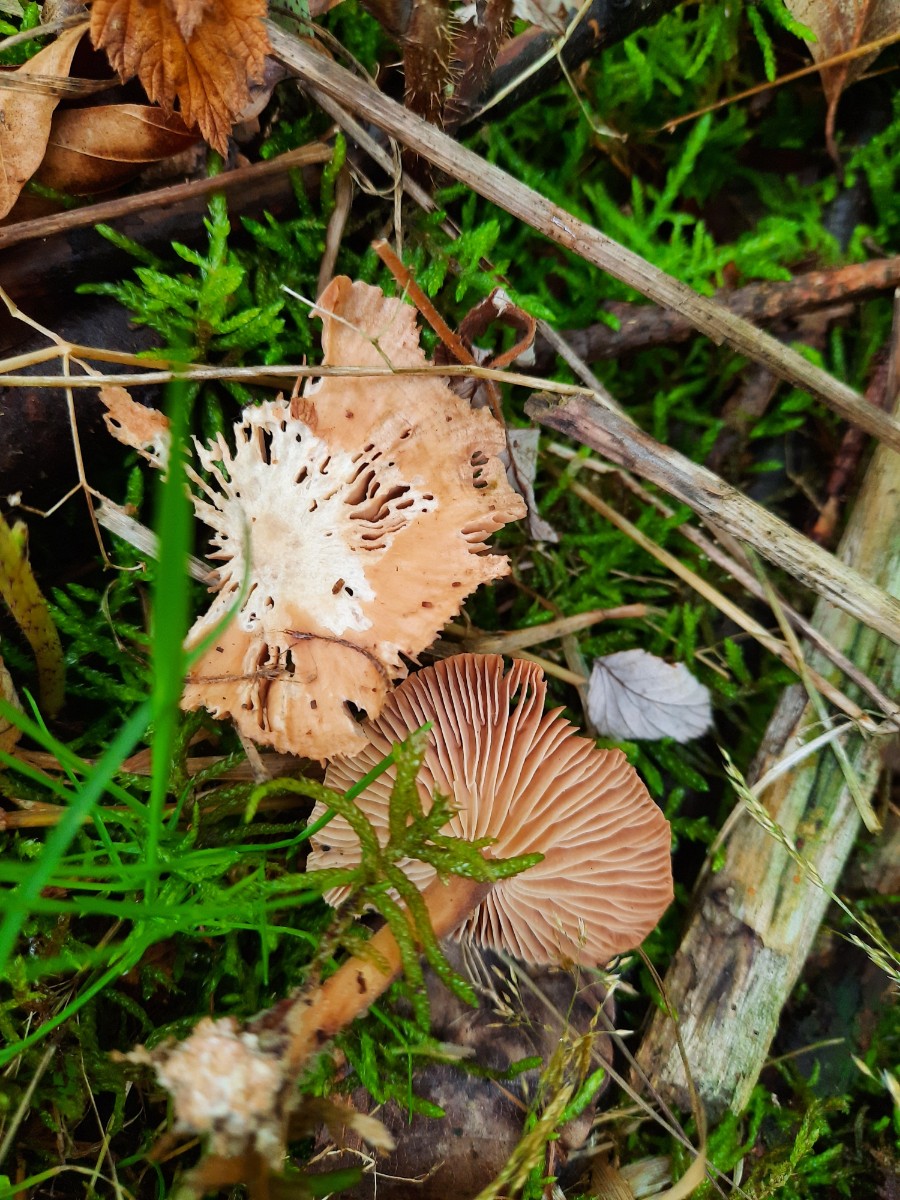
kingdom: Fungi
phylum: Basidiomycota
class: Agaricomycetes
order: Agaricales
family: Omphalotaceae
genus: Collybiopsis
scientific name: Collybiopsis peronata
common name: bestøvlet fladhat
